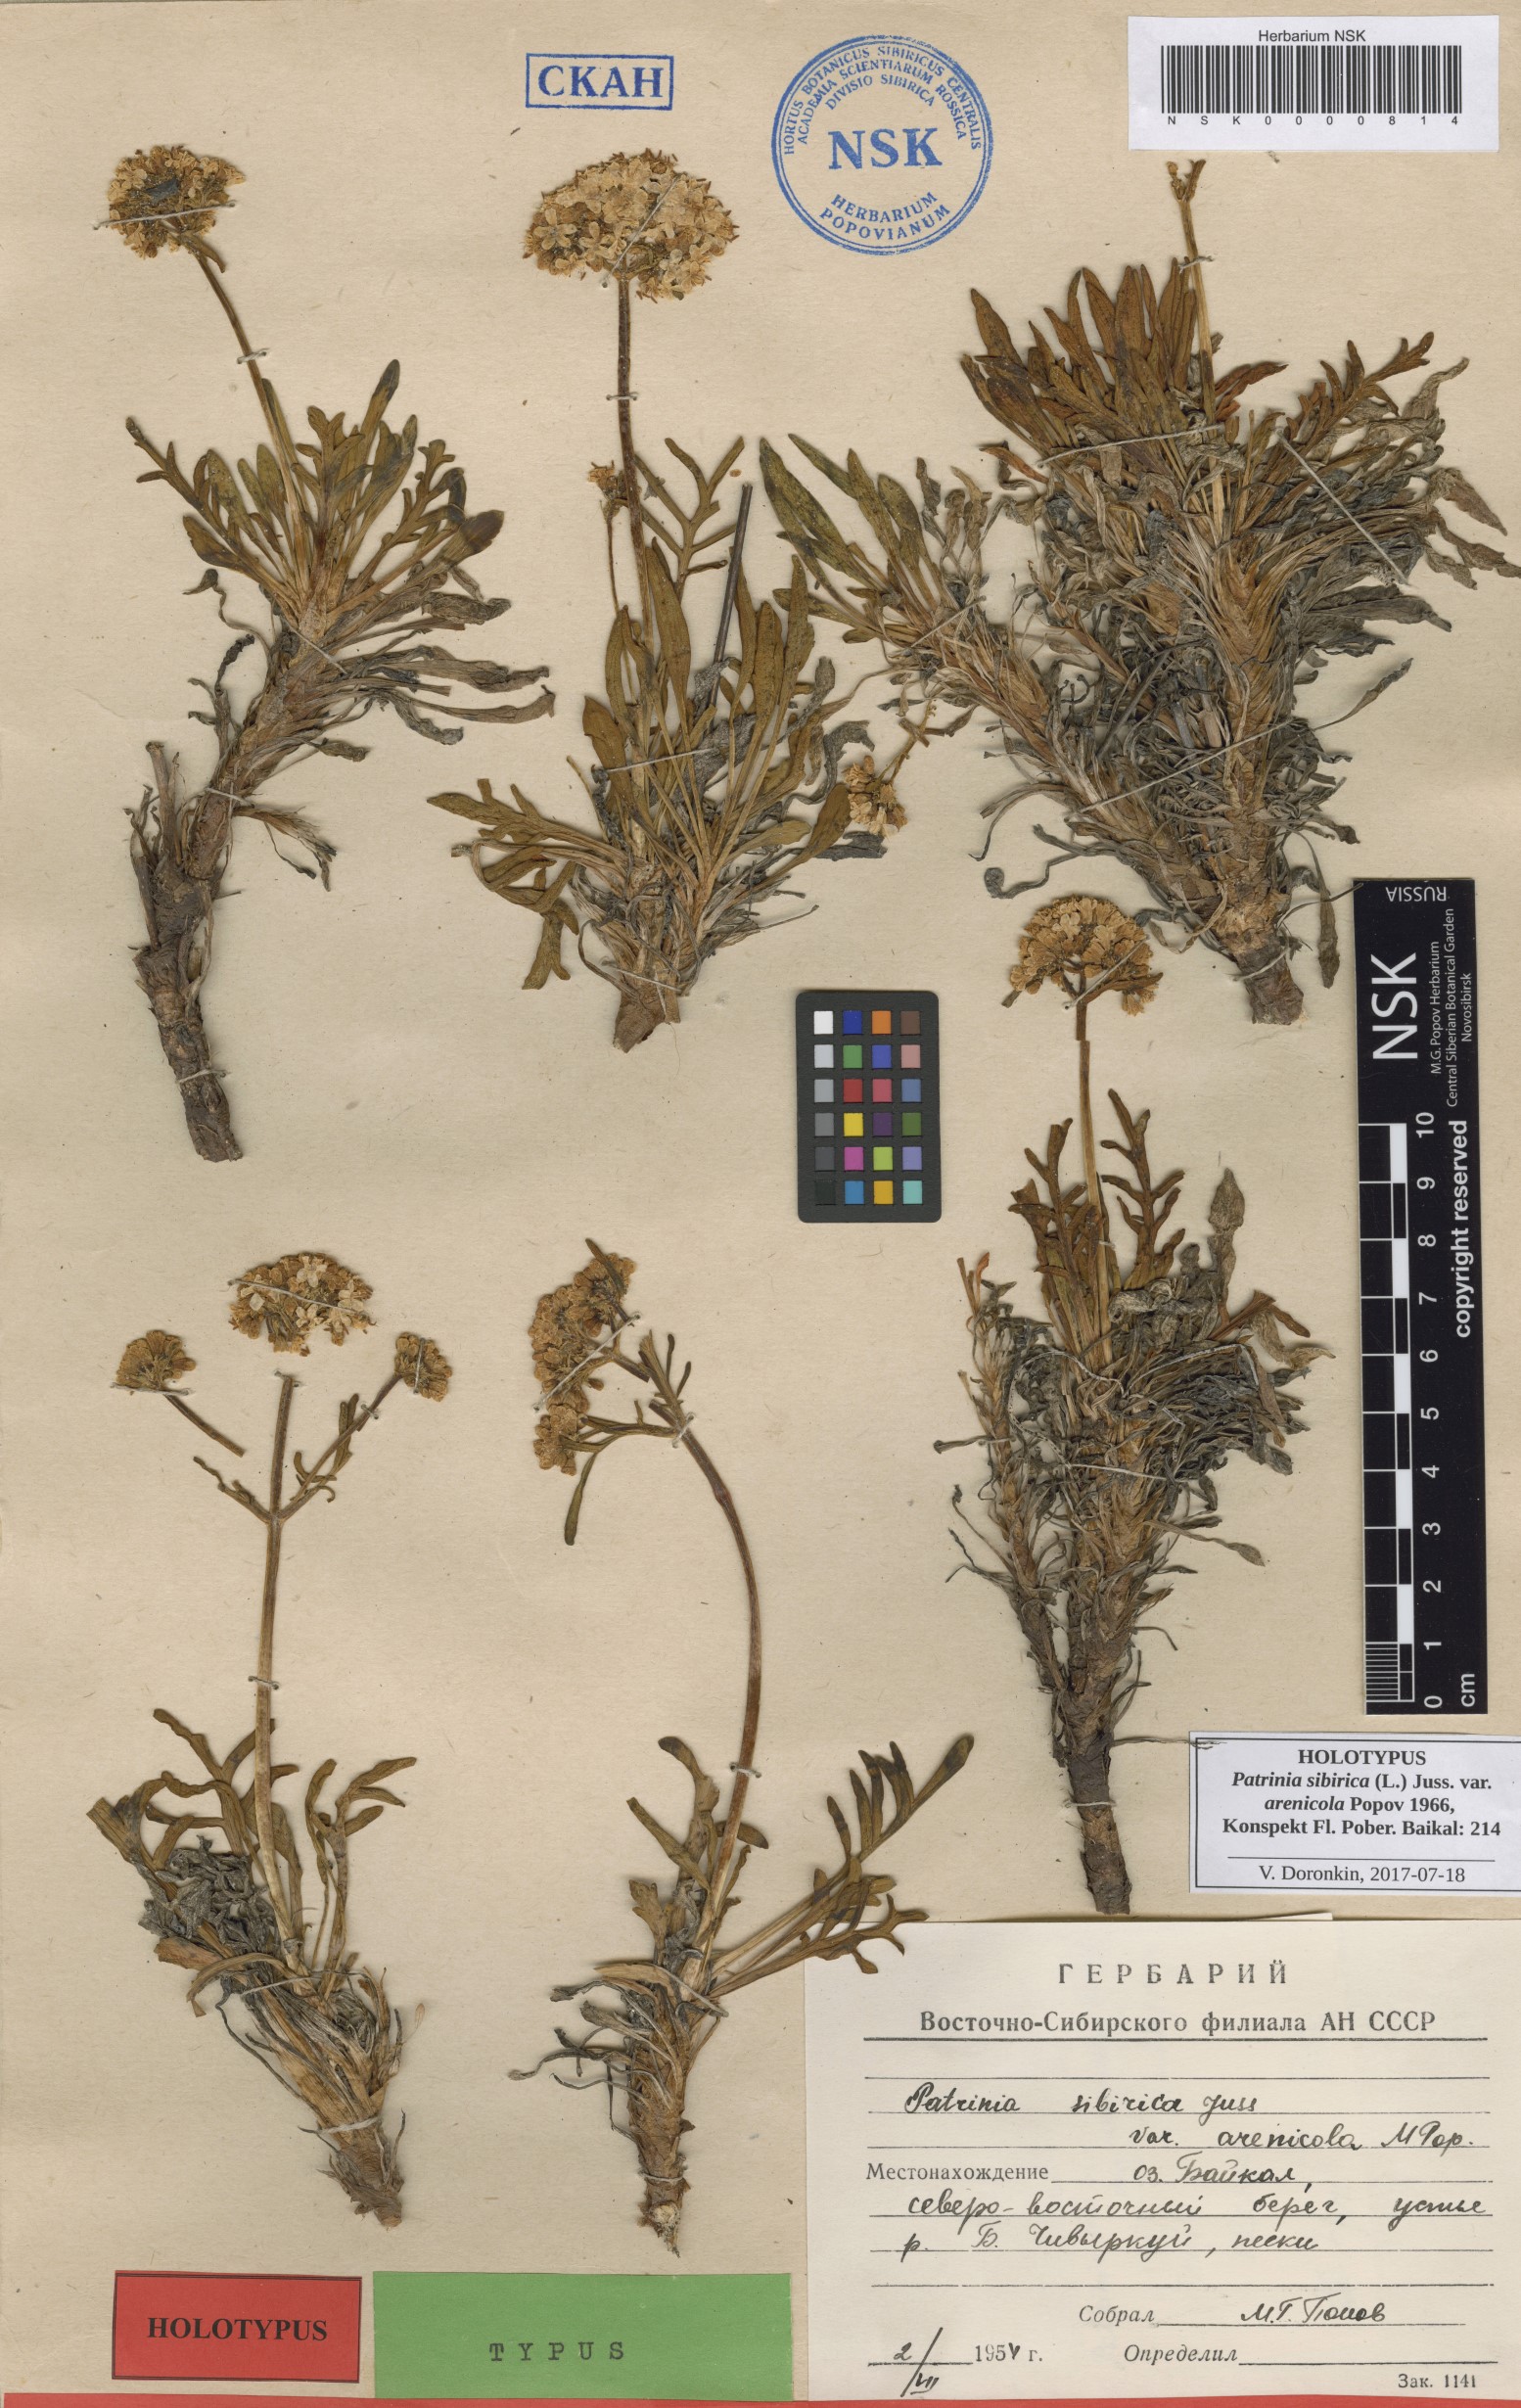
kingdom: Plantae
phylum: Tracheophyta
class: Magnoliopsida
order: Dipsacales
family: Caprifoliaceae
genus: Patrinia
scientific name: Patrinia sibirica
